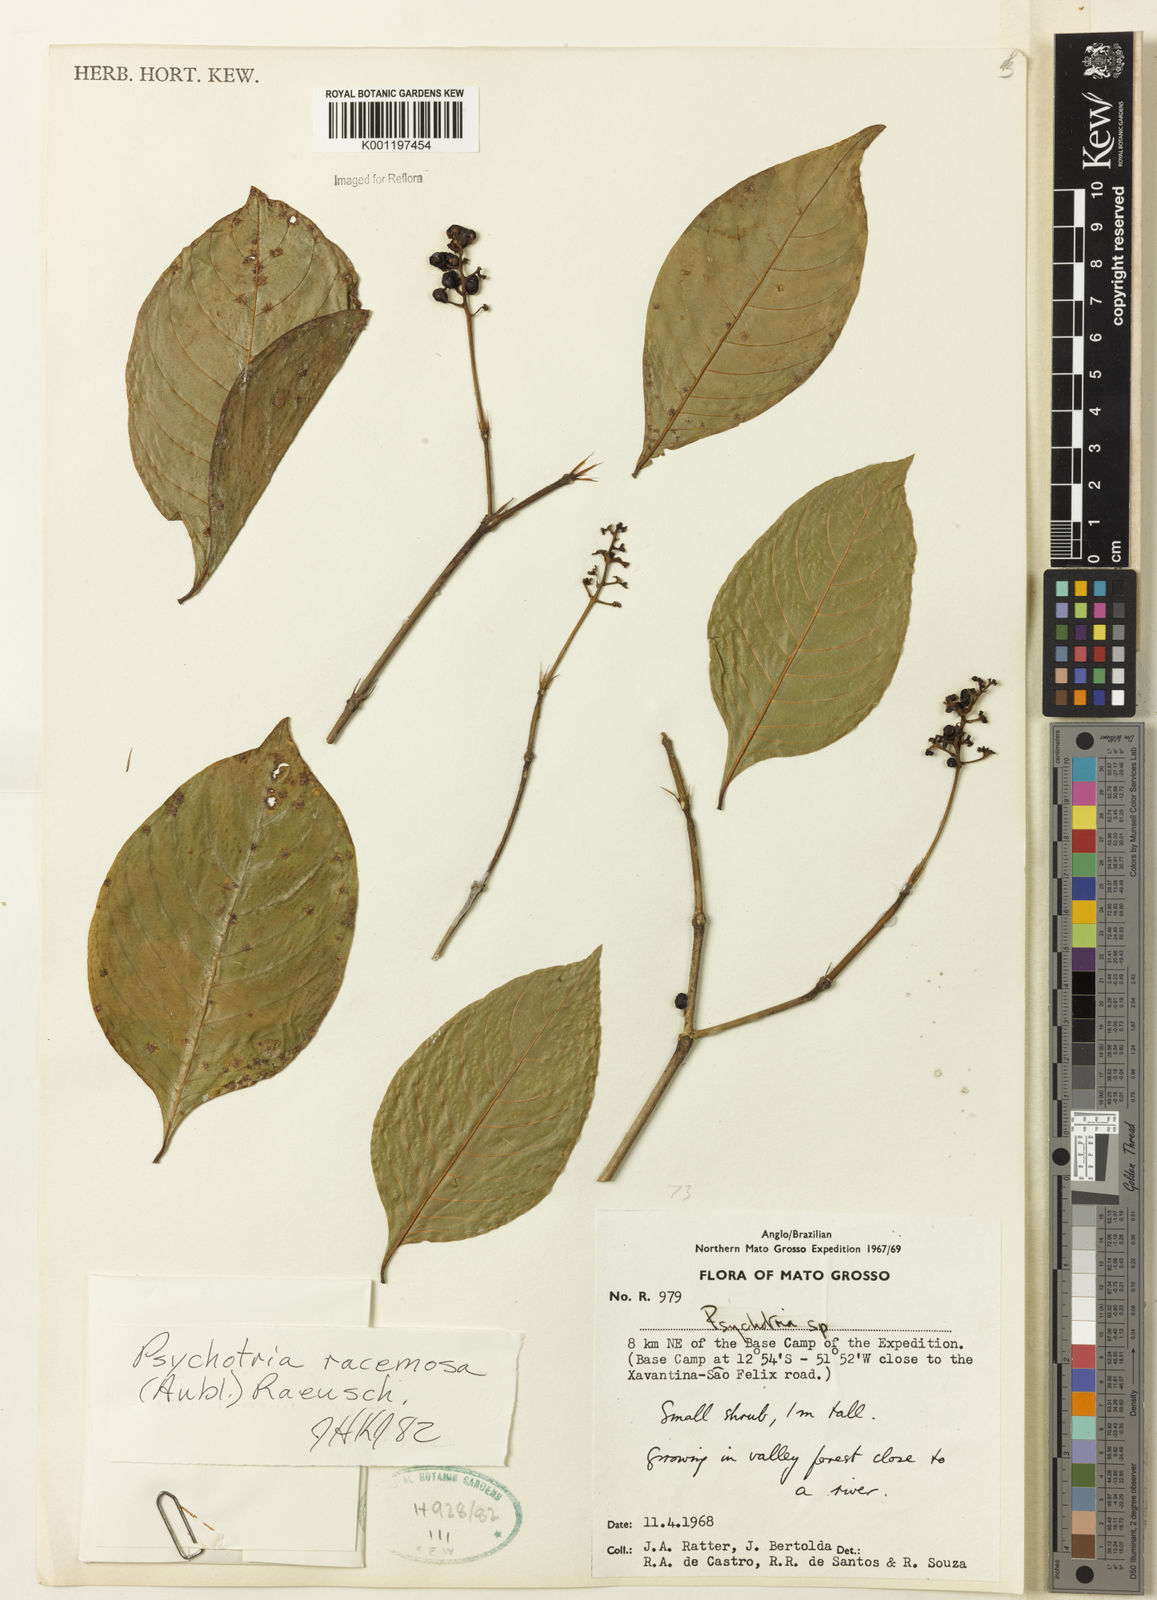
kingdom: Plantae
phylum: Tracheophyta
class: Magnoliopsida
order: Gentianales
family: Rubiaceae
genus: Psychotria
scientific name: Psychotria remota
